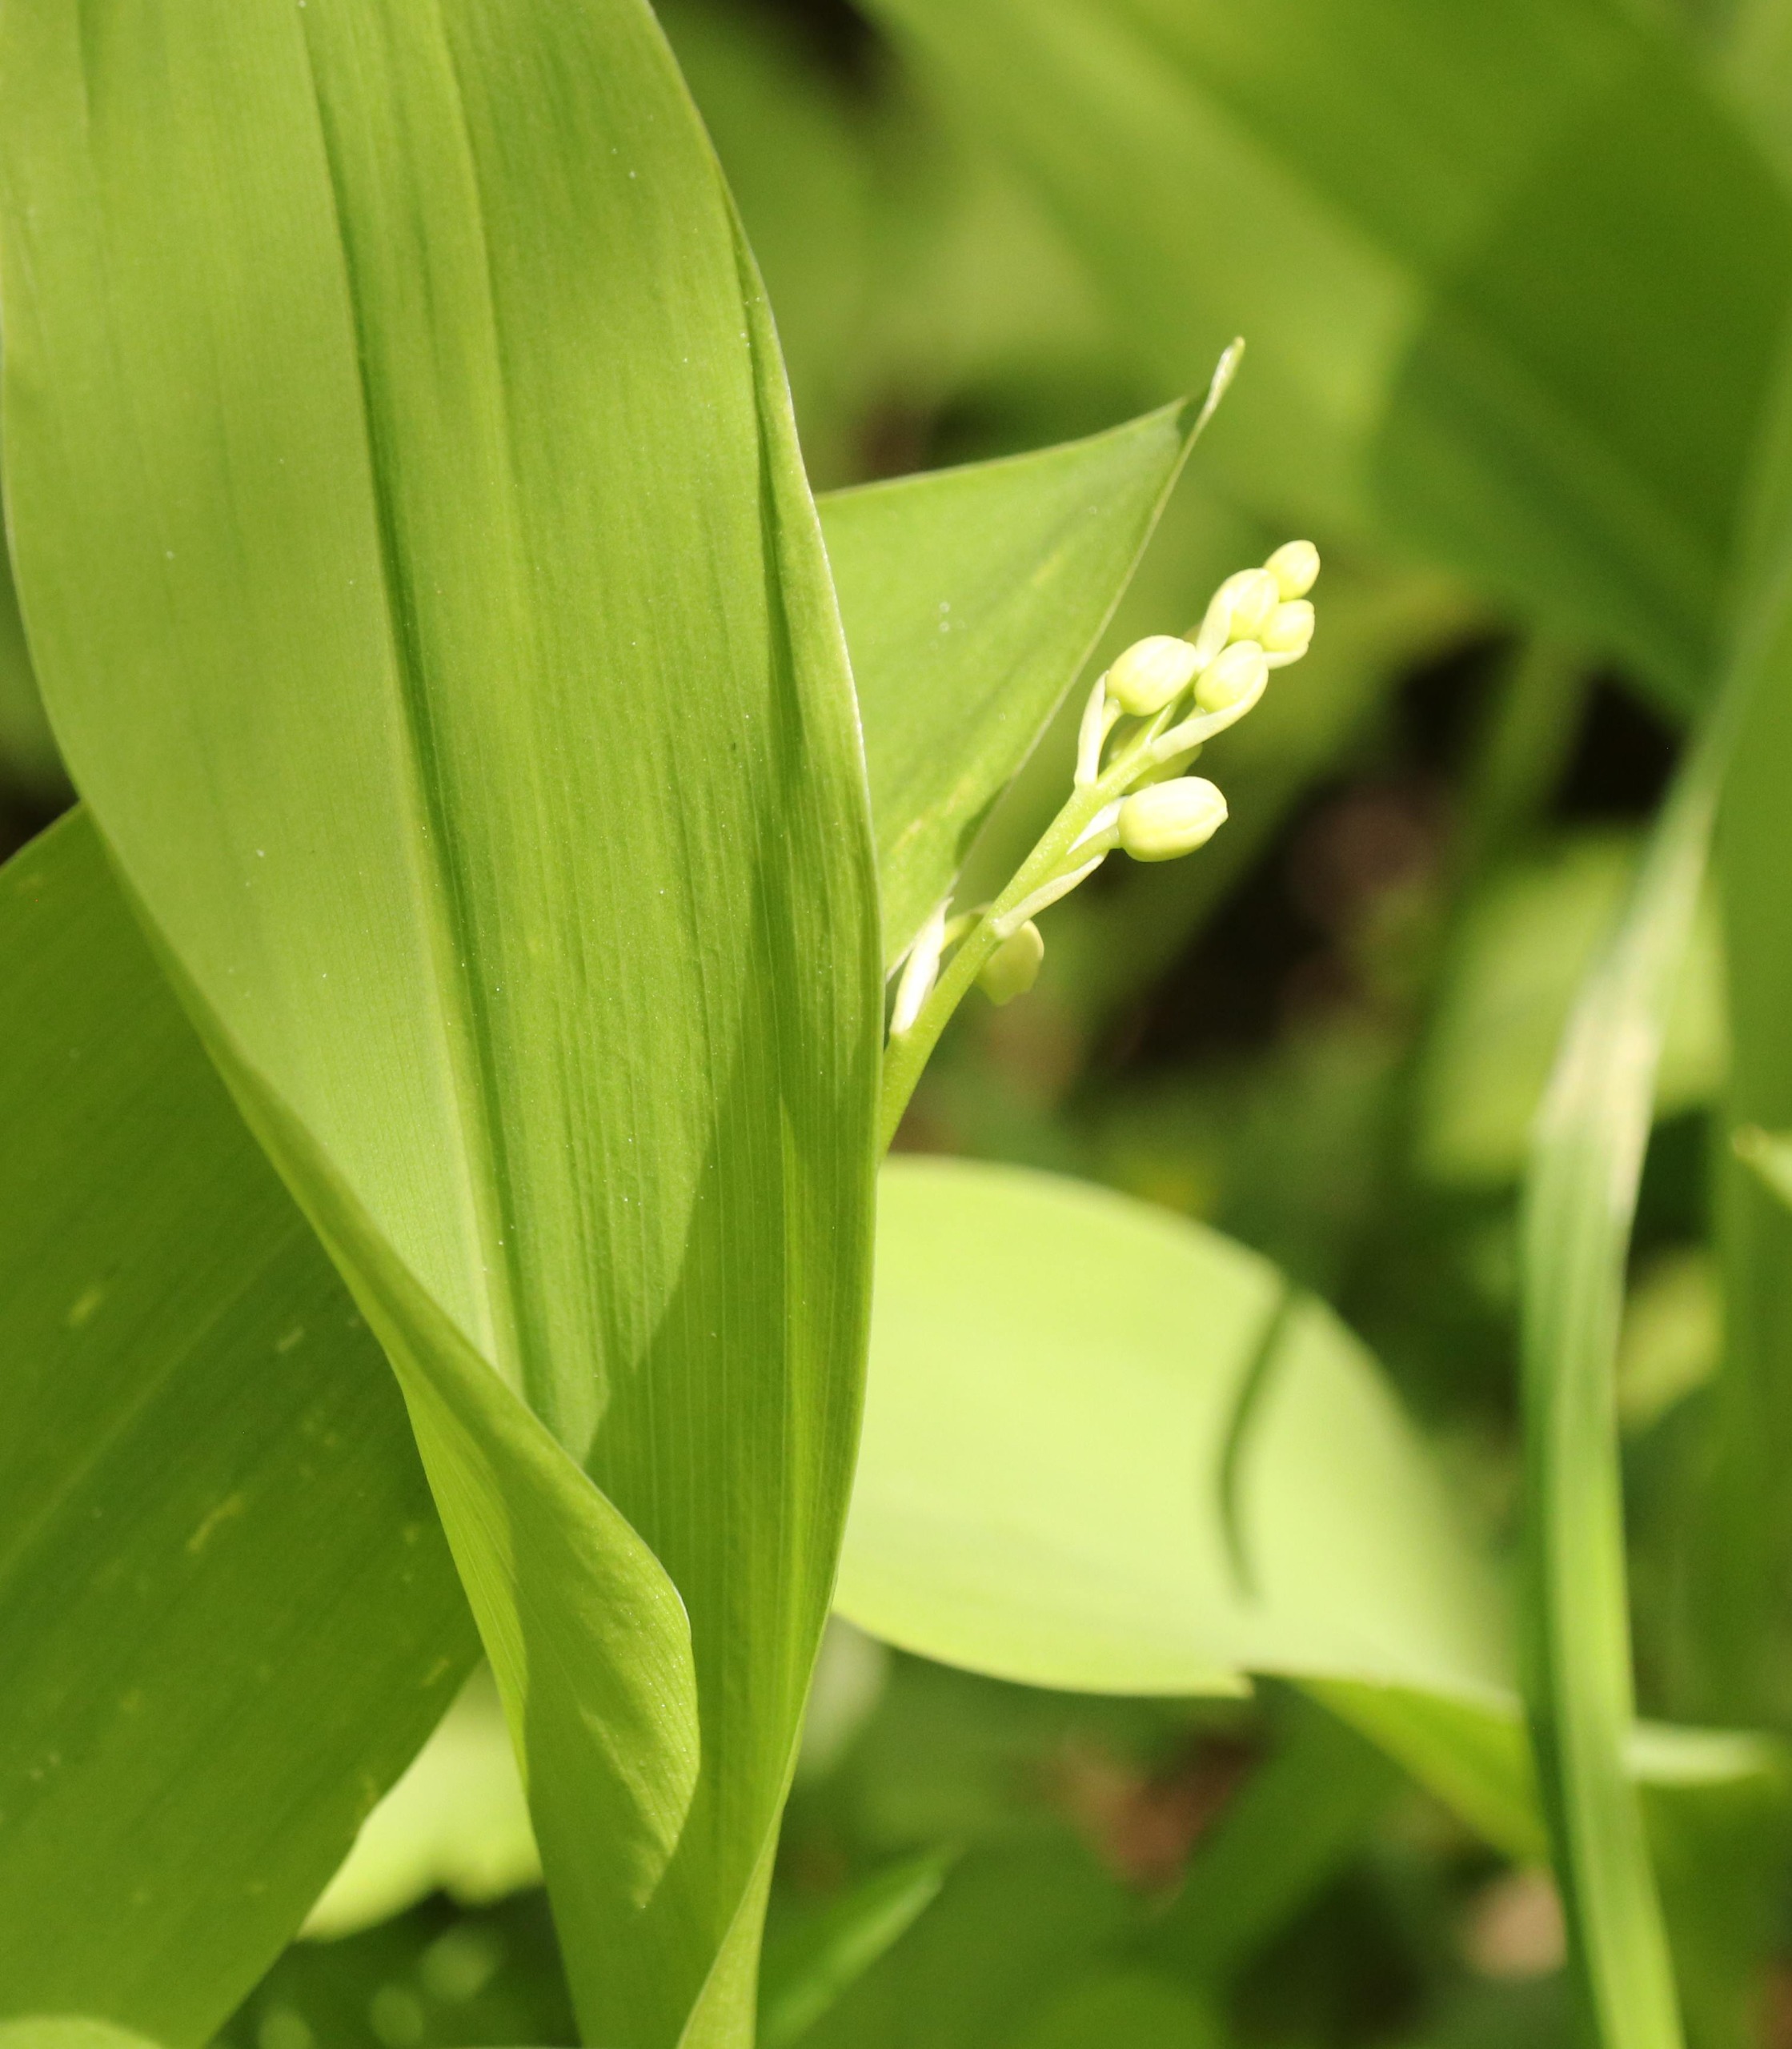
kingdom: Plantae
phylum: Tracheophyta
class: Liliopsida
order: Asparagales
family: Asparagaceae
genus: Convallaria
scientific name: Convallaria majalis
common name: Liljekonval
